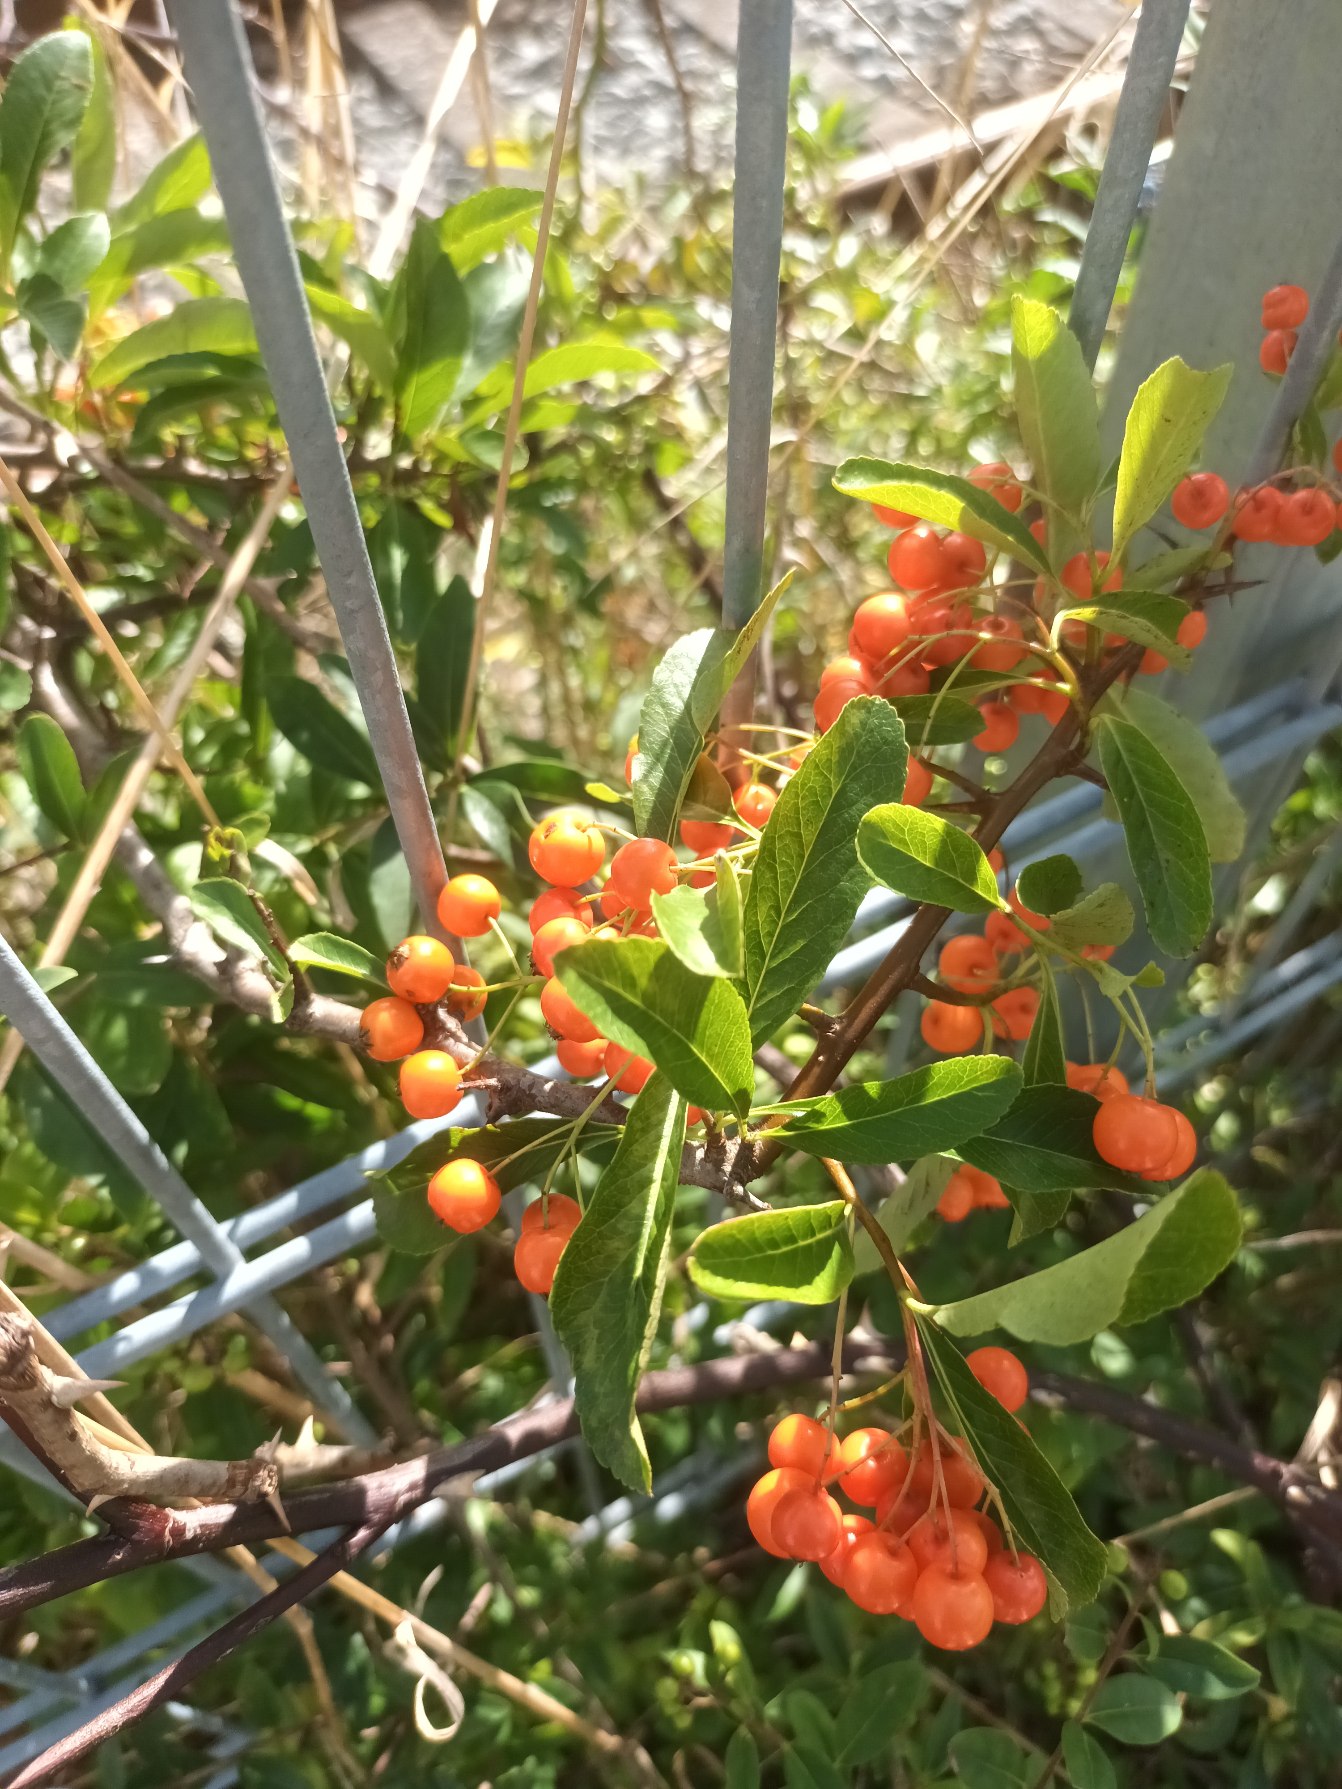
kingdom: Plantae
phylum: Tracheophyta
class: Magnoliopsida
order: Rosales
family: Rosaceae
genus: Pyracantha
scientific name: Pyracantha crenulata
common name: Orangegul ildtorn
